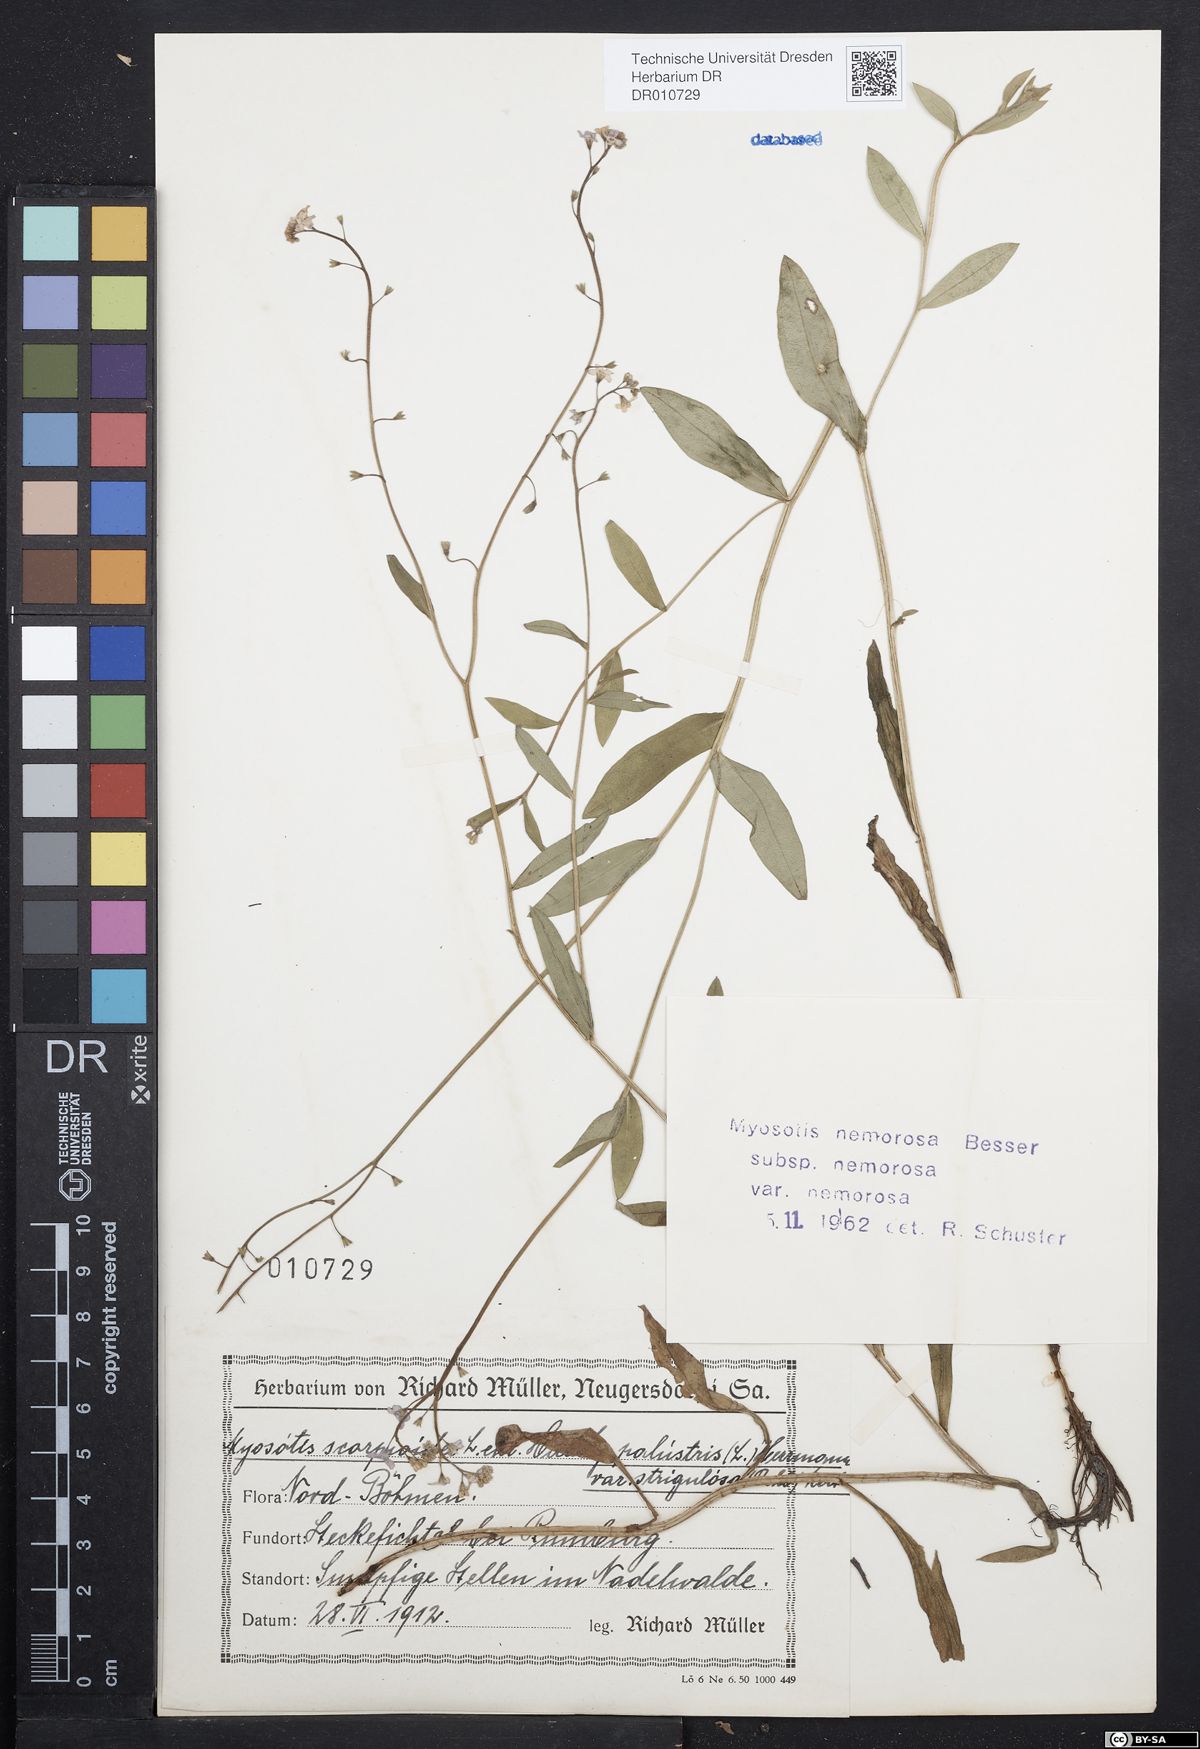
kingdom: Plantae
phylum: Tracheophyta
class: Magnoliopsida
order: Boraginales
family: Boraginaceae
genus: Myosotis
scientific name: Myosotis nemorosa
